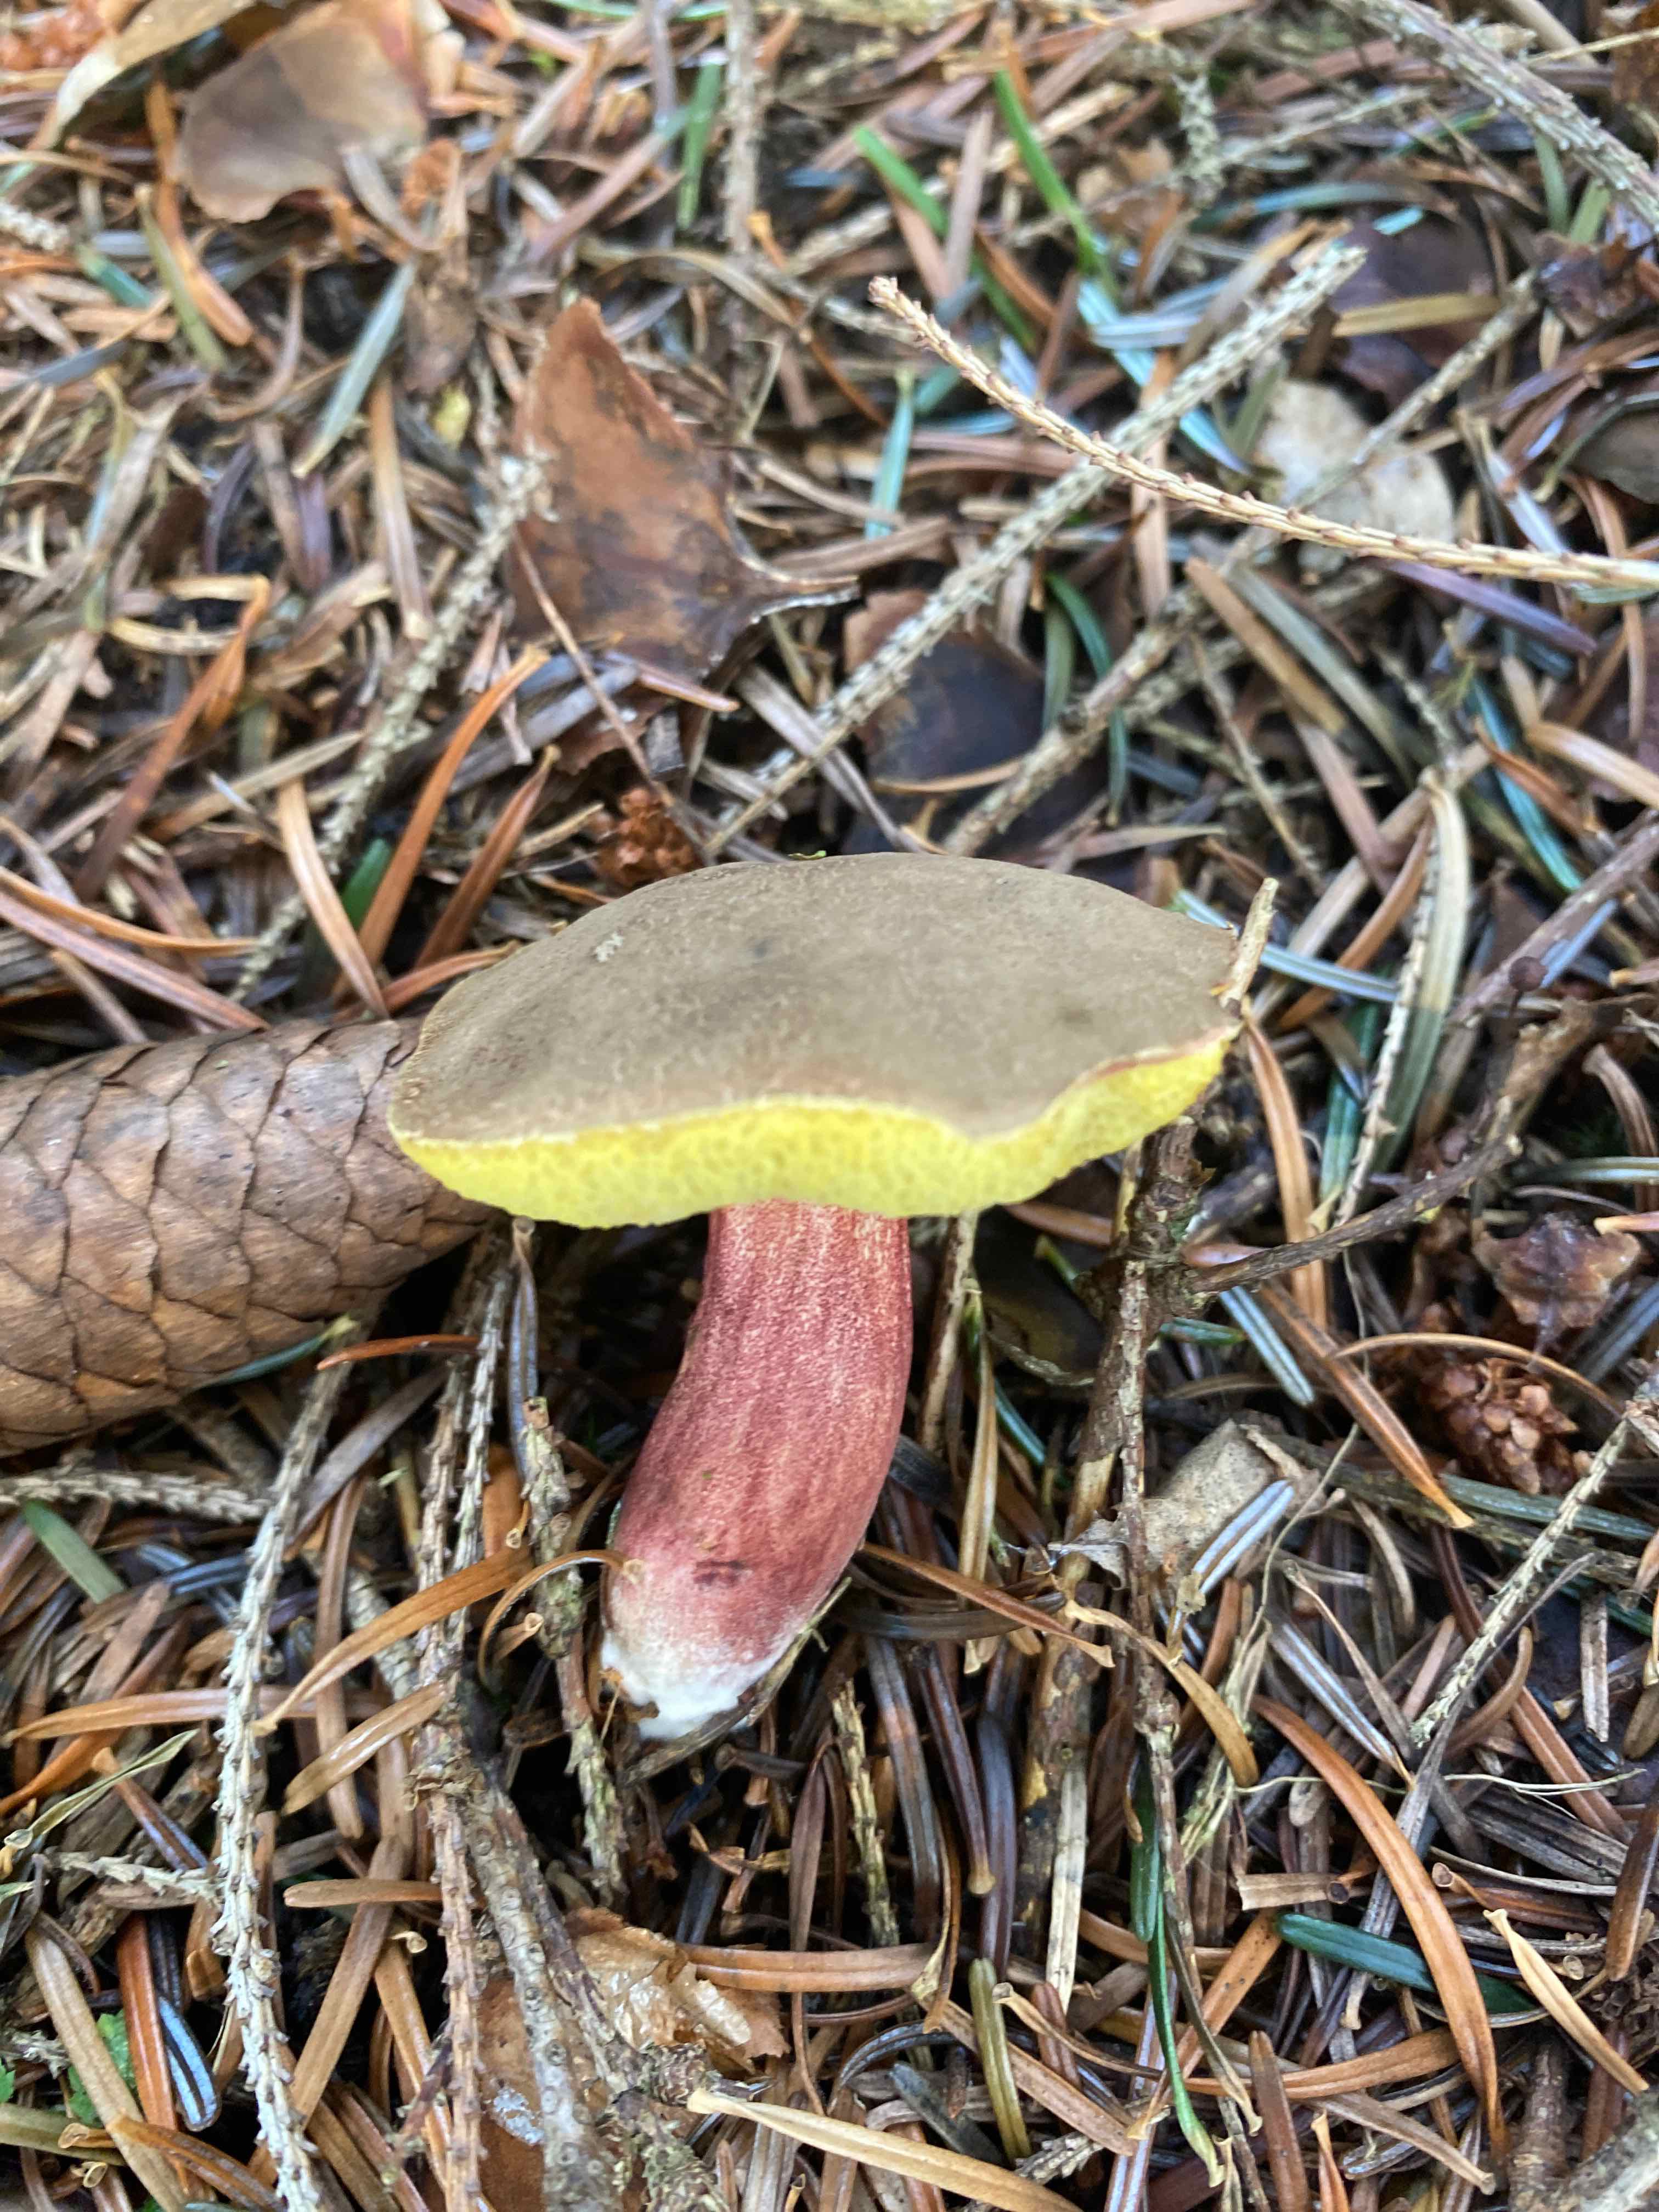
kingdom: Fungi
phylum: Basidiomycota
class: Agaricomycetes
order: Boletales
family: Boletaceae
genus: Xerocomellus
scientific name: Xerocomellus
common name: dværgrørhat
